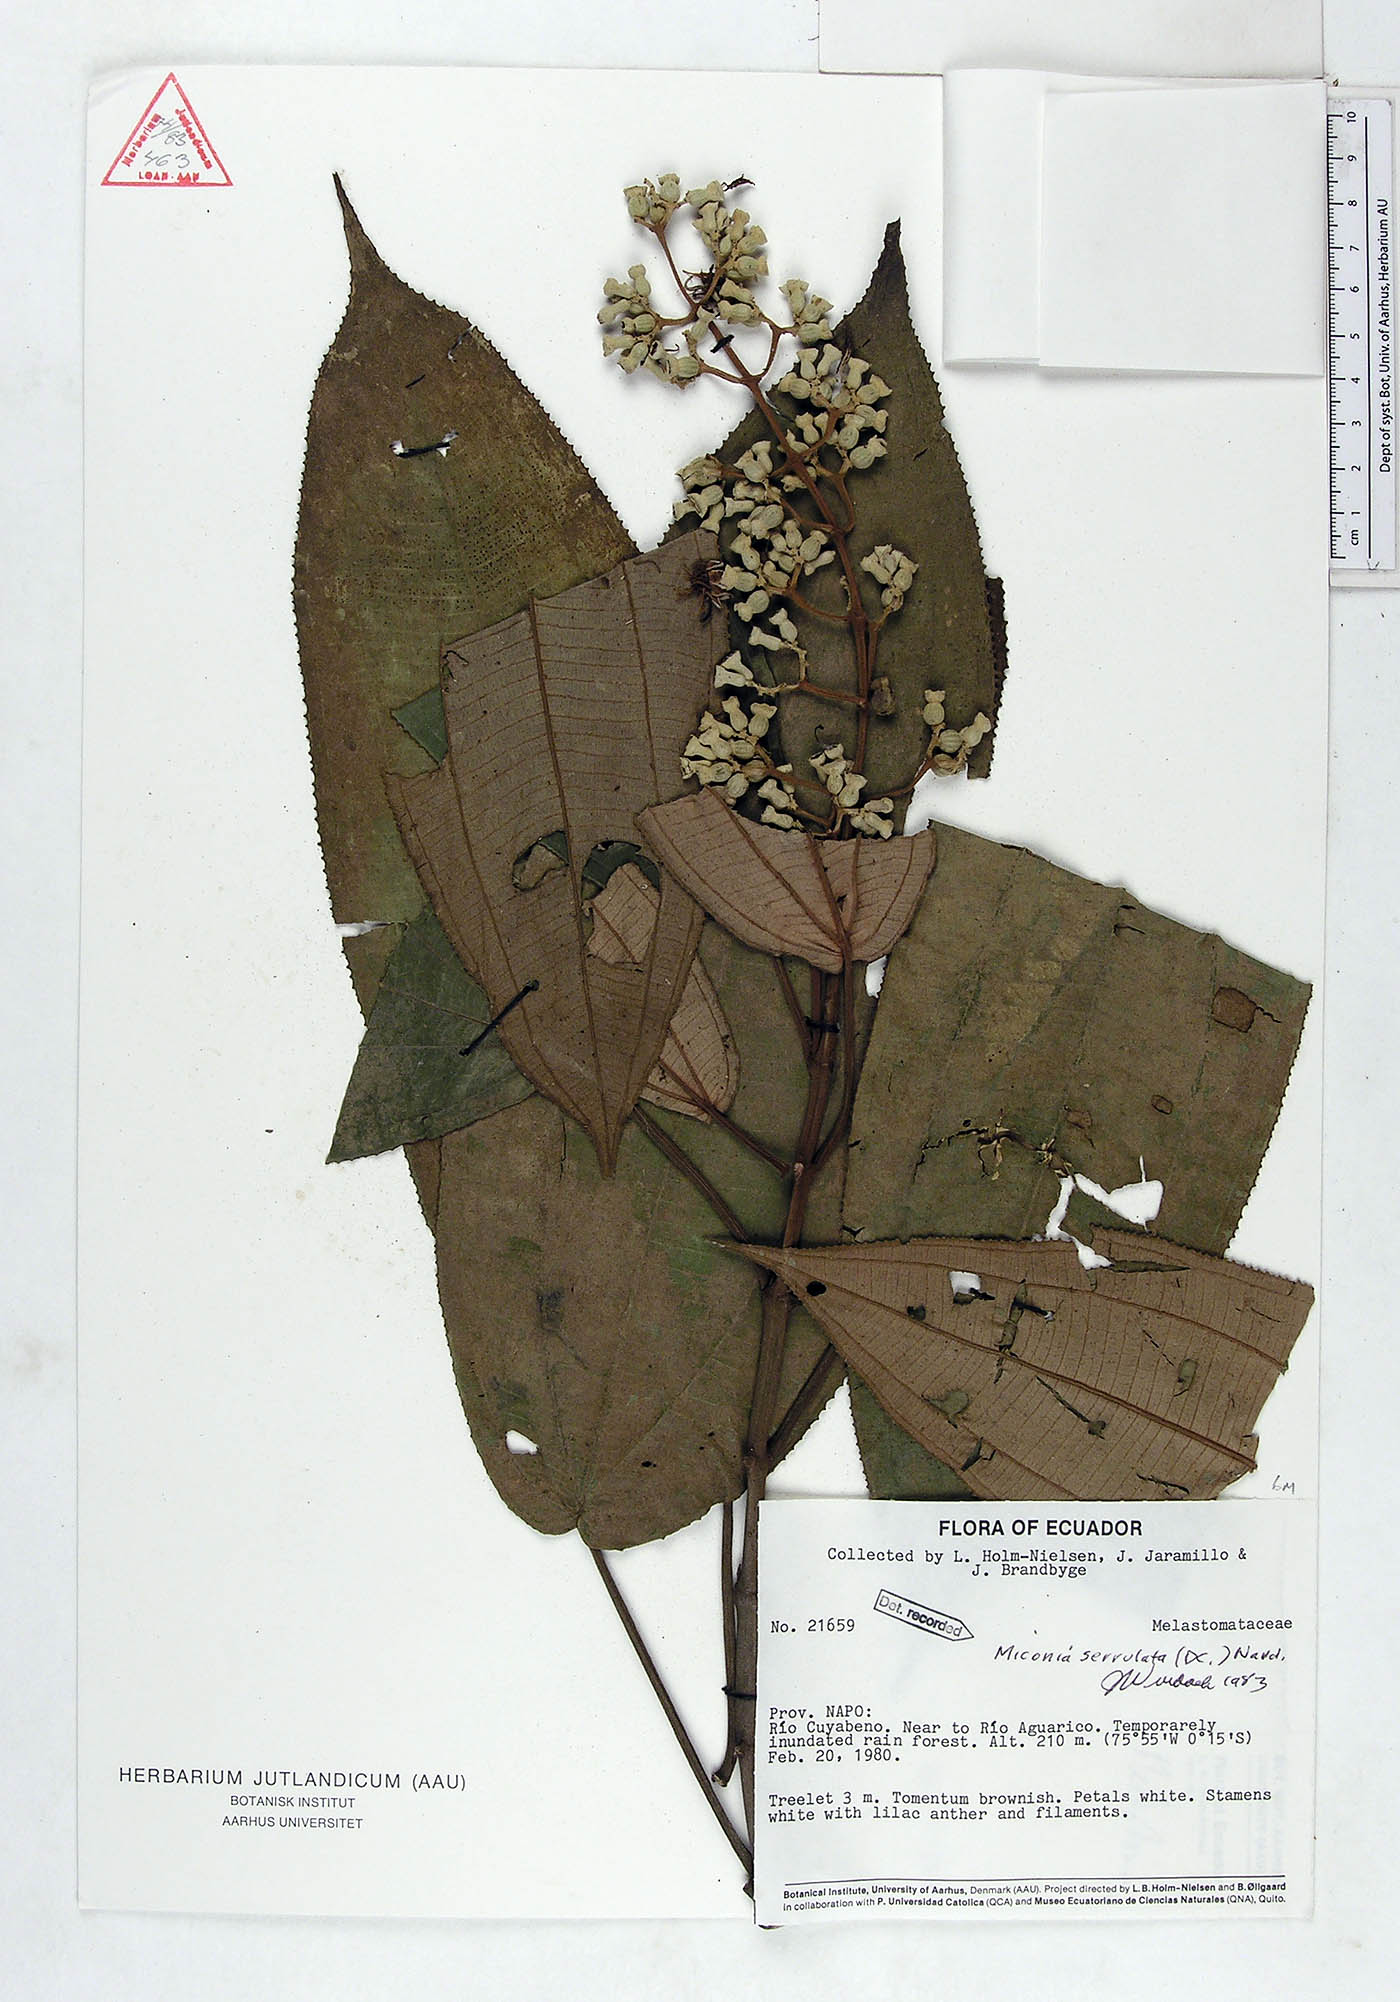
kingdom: Plantae
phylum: Tracheophyta
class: Magnoliopsida
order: Myrtales
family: Melastomataceae
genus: Miconia
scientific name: Miconia serrulata
